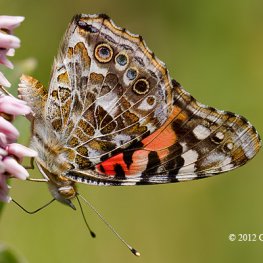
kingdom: Animalia
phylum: Arthropoda
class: Insecta
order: Lepidoptera
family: Nymphalidae
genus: Vanessa
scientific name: Vanessa cardui
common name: Painted Lady
